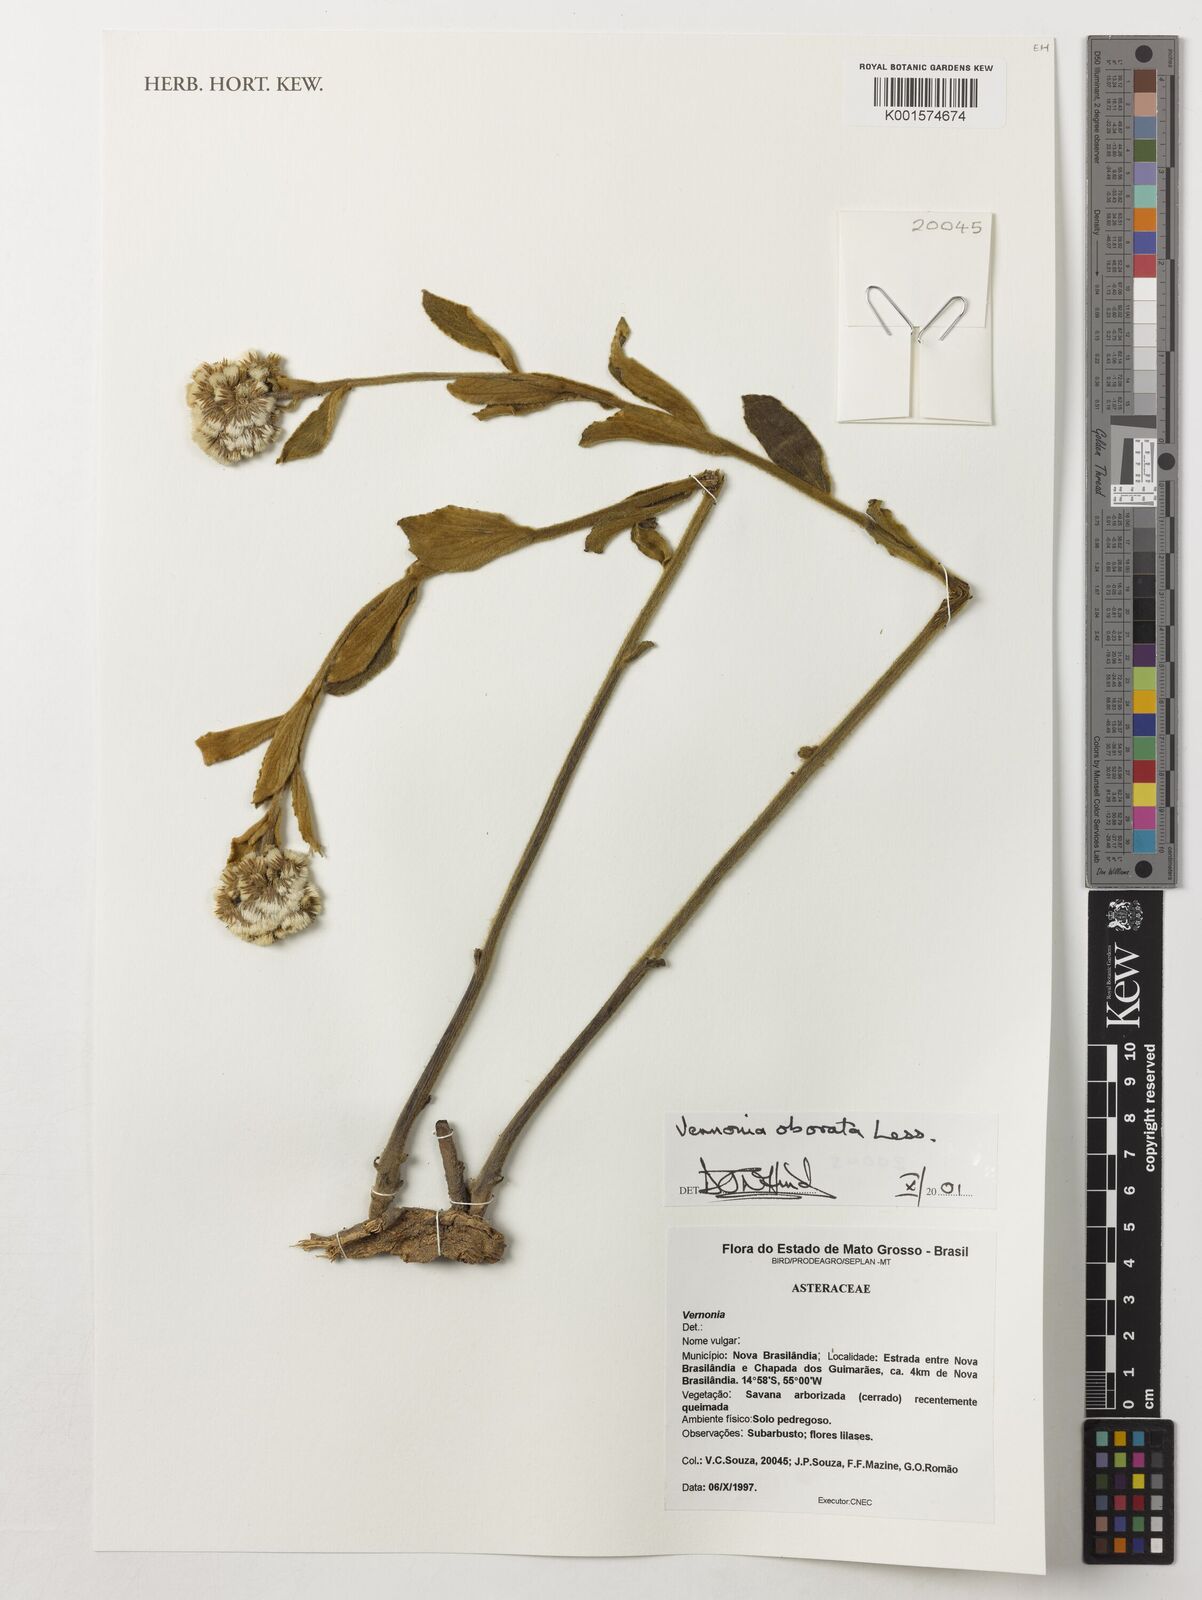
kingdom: Plantae
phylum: Tracheophyta
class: Magnoliopsida
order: Asterales
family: Asteraceae
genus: Chrysolaena
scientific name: Chrysolaena obovata
